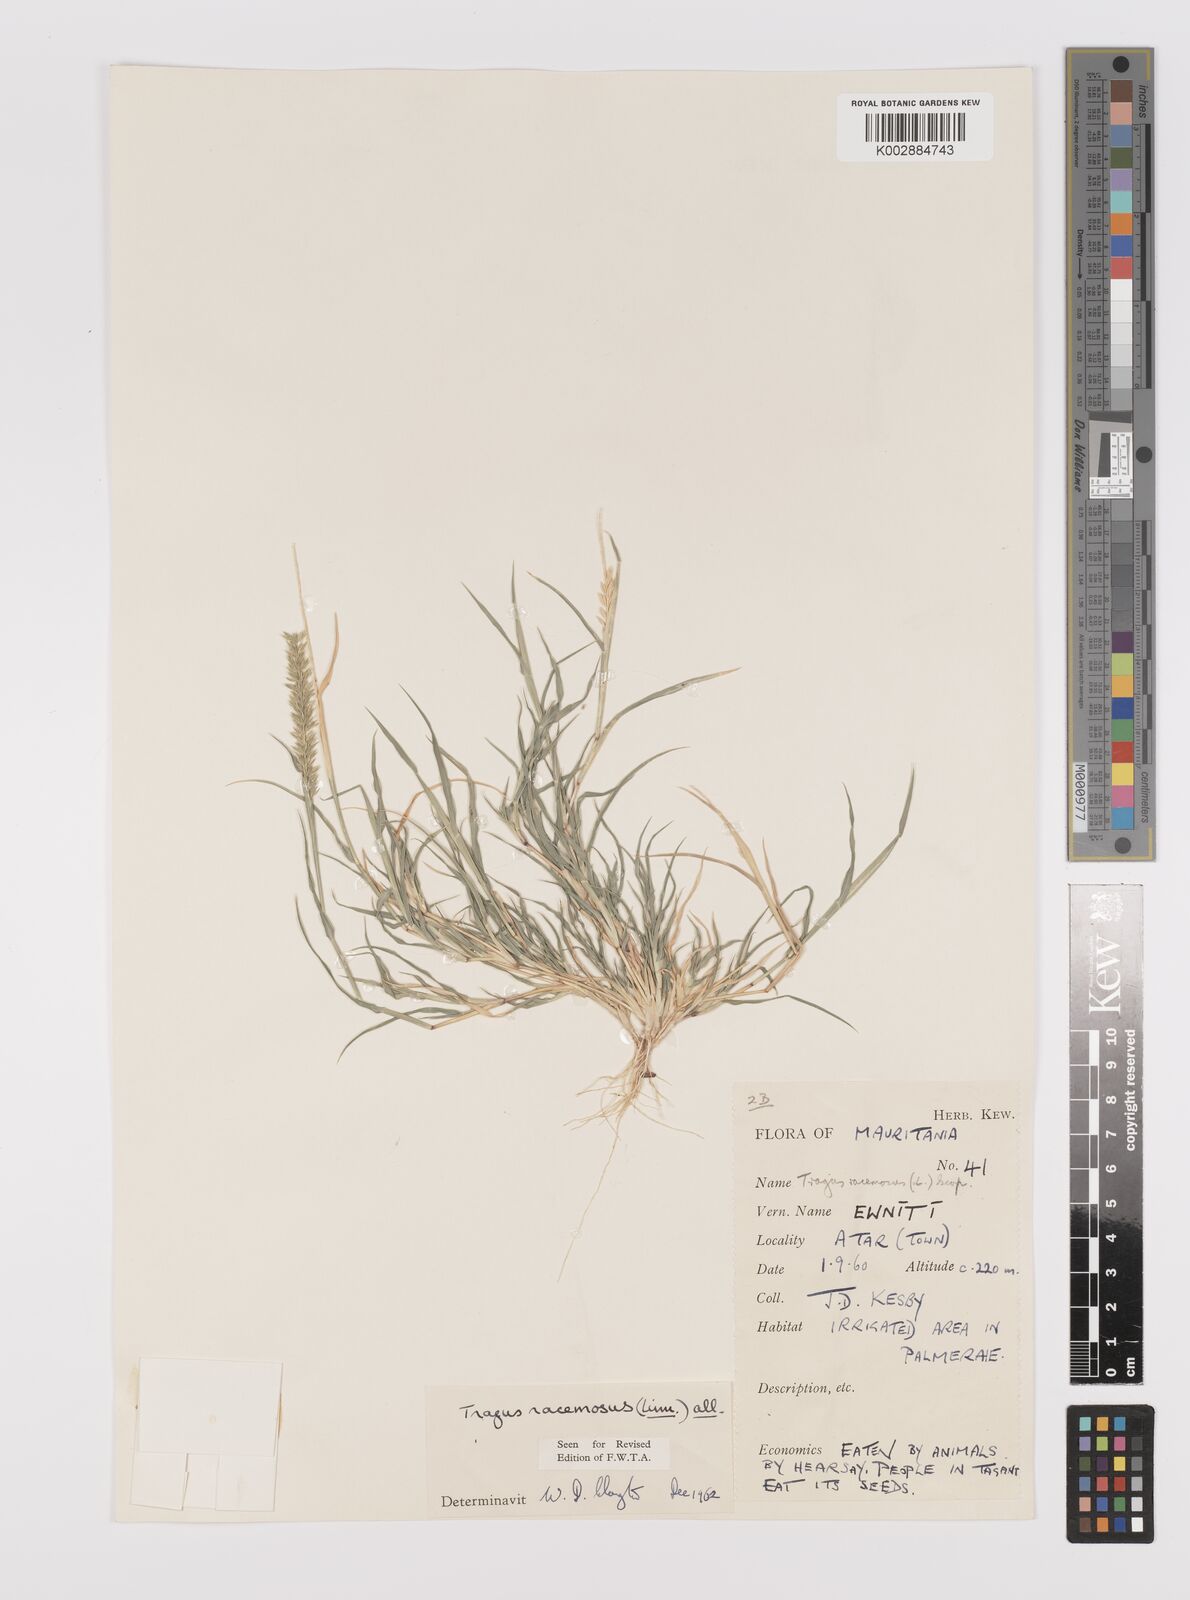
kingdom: Plantae
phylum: Tracheophyta
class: Liliopsida
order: Poales
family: Poaceae
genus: Tragus
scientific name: Tragus racemosus
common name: European bur-grass
